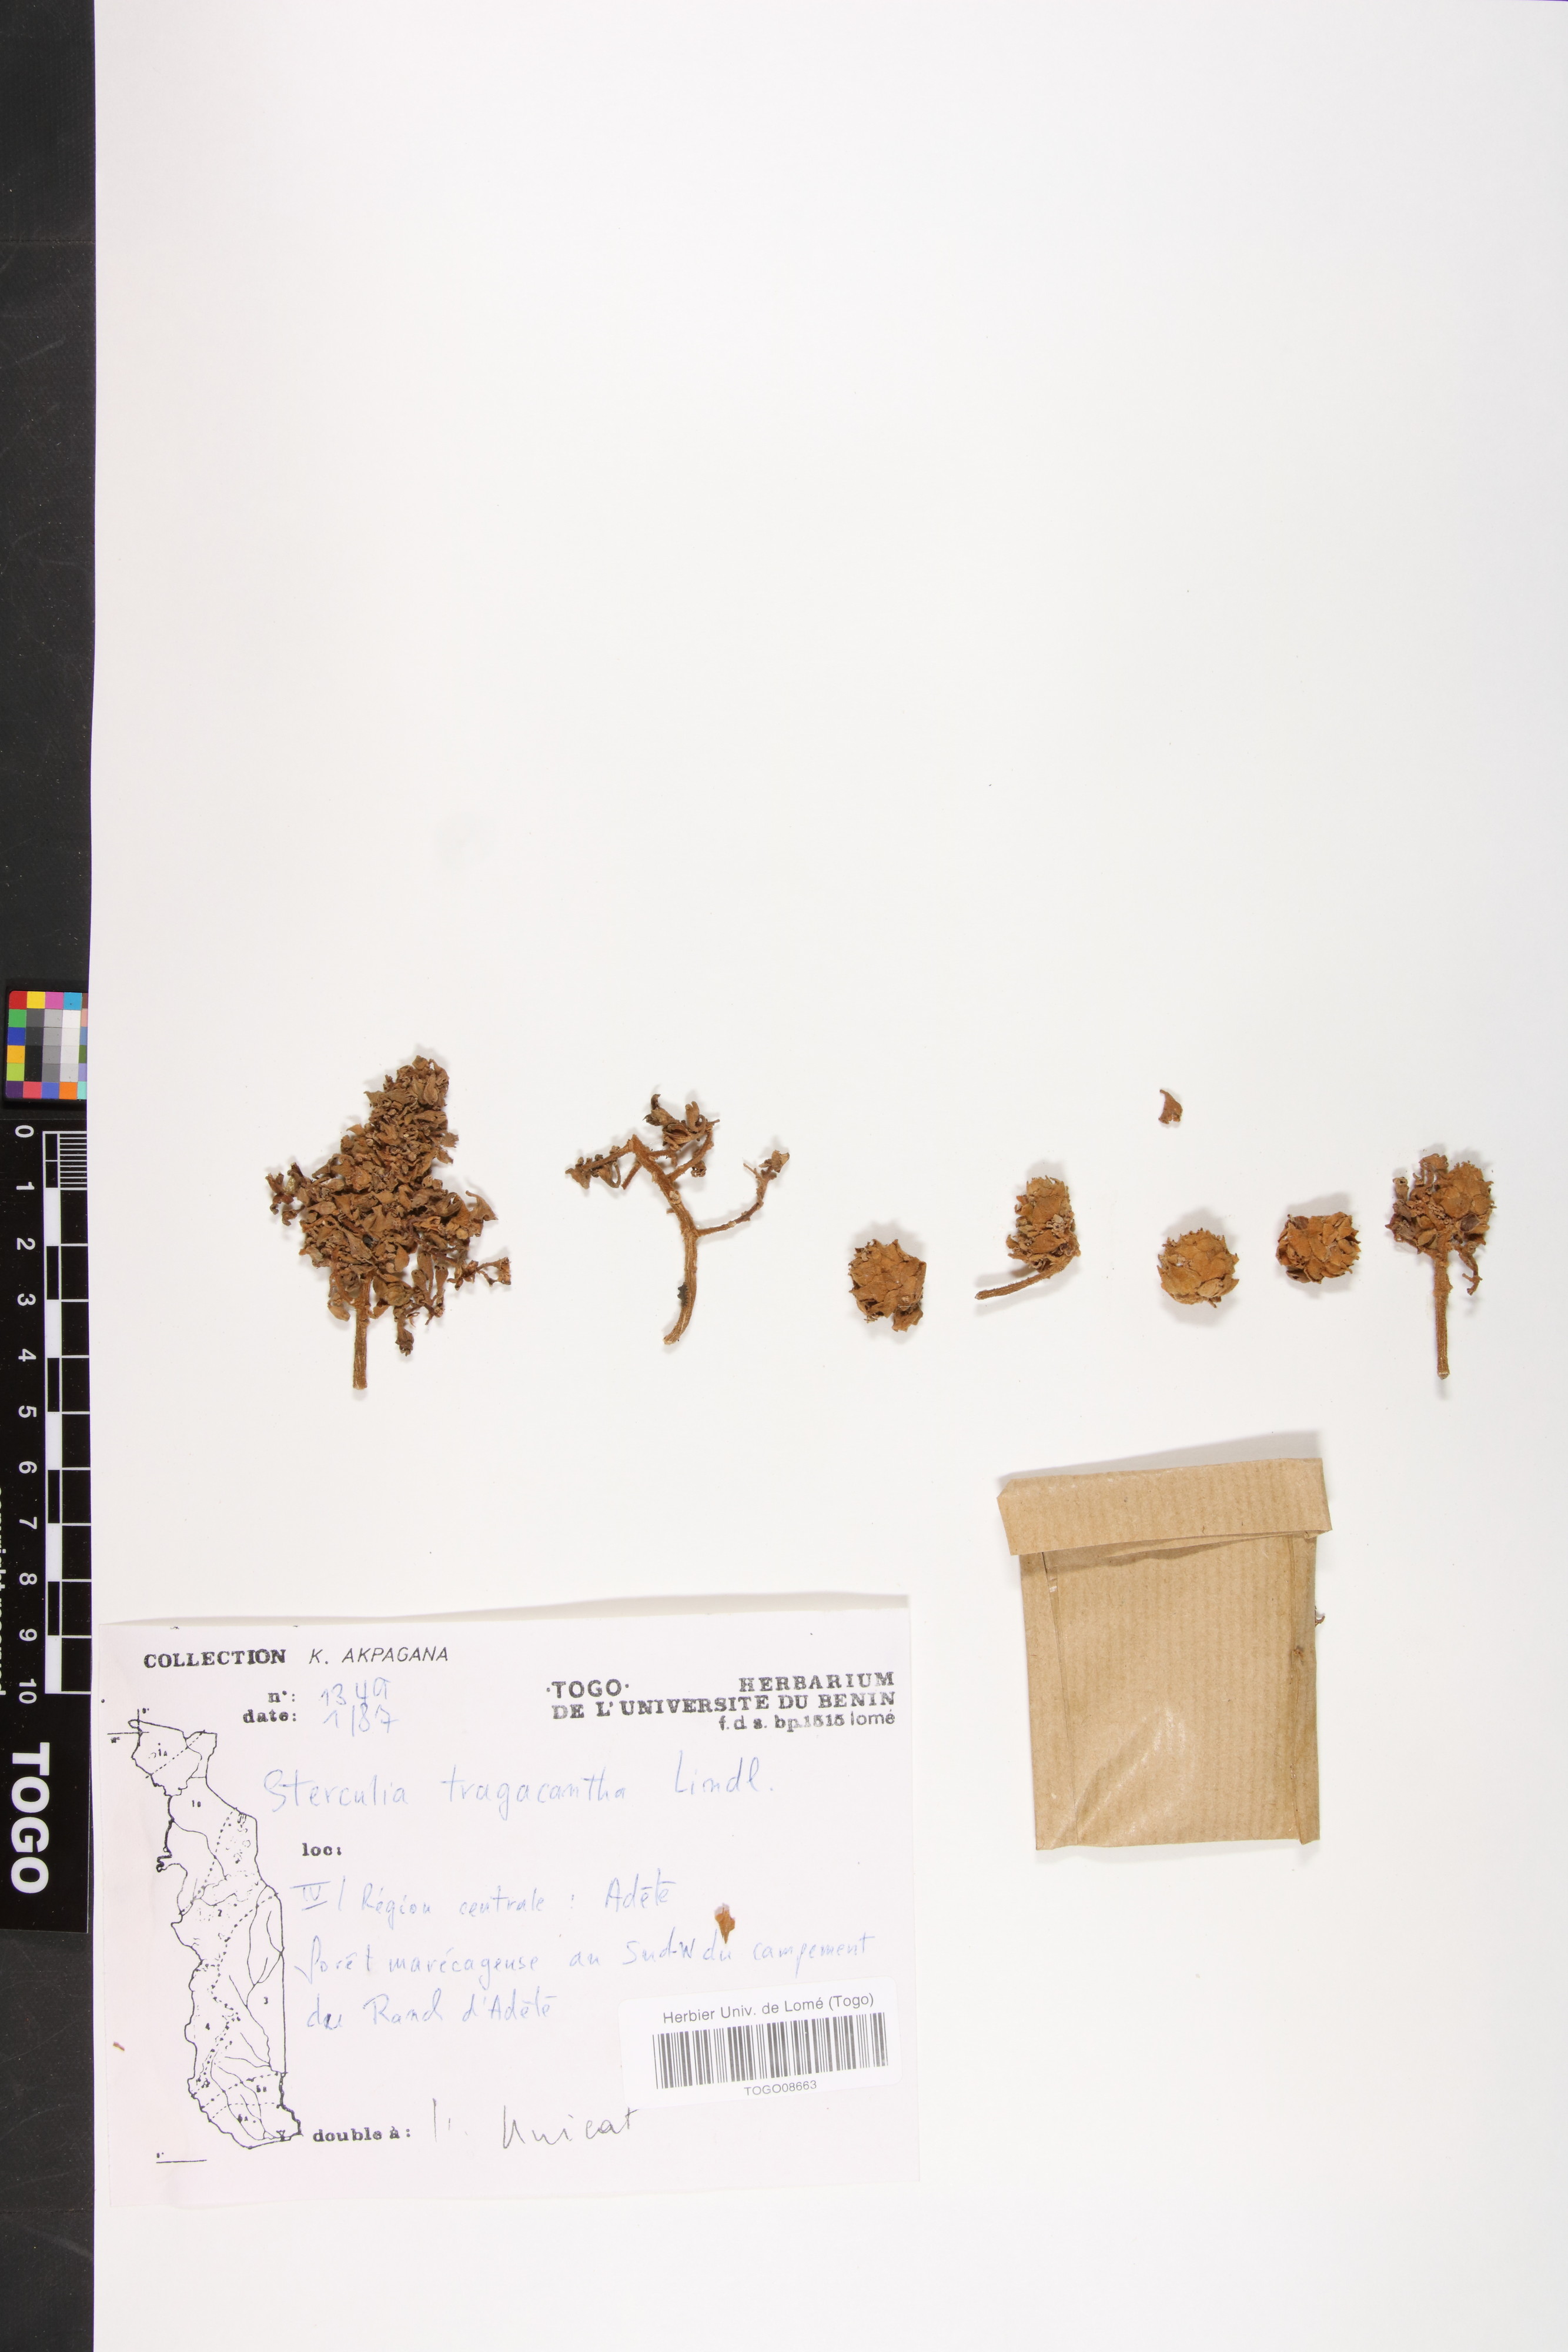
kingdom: Plantae
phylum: Tracheophyta
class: Magnoliopsida
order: Malvales
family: Malvaceae
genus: Sterculia
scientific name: Sterculia tragacantha
